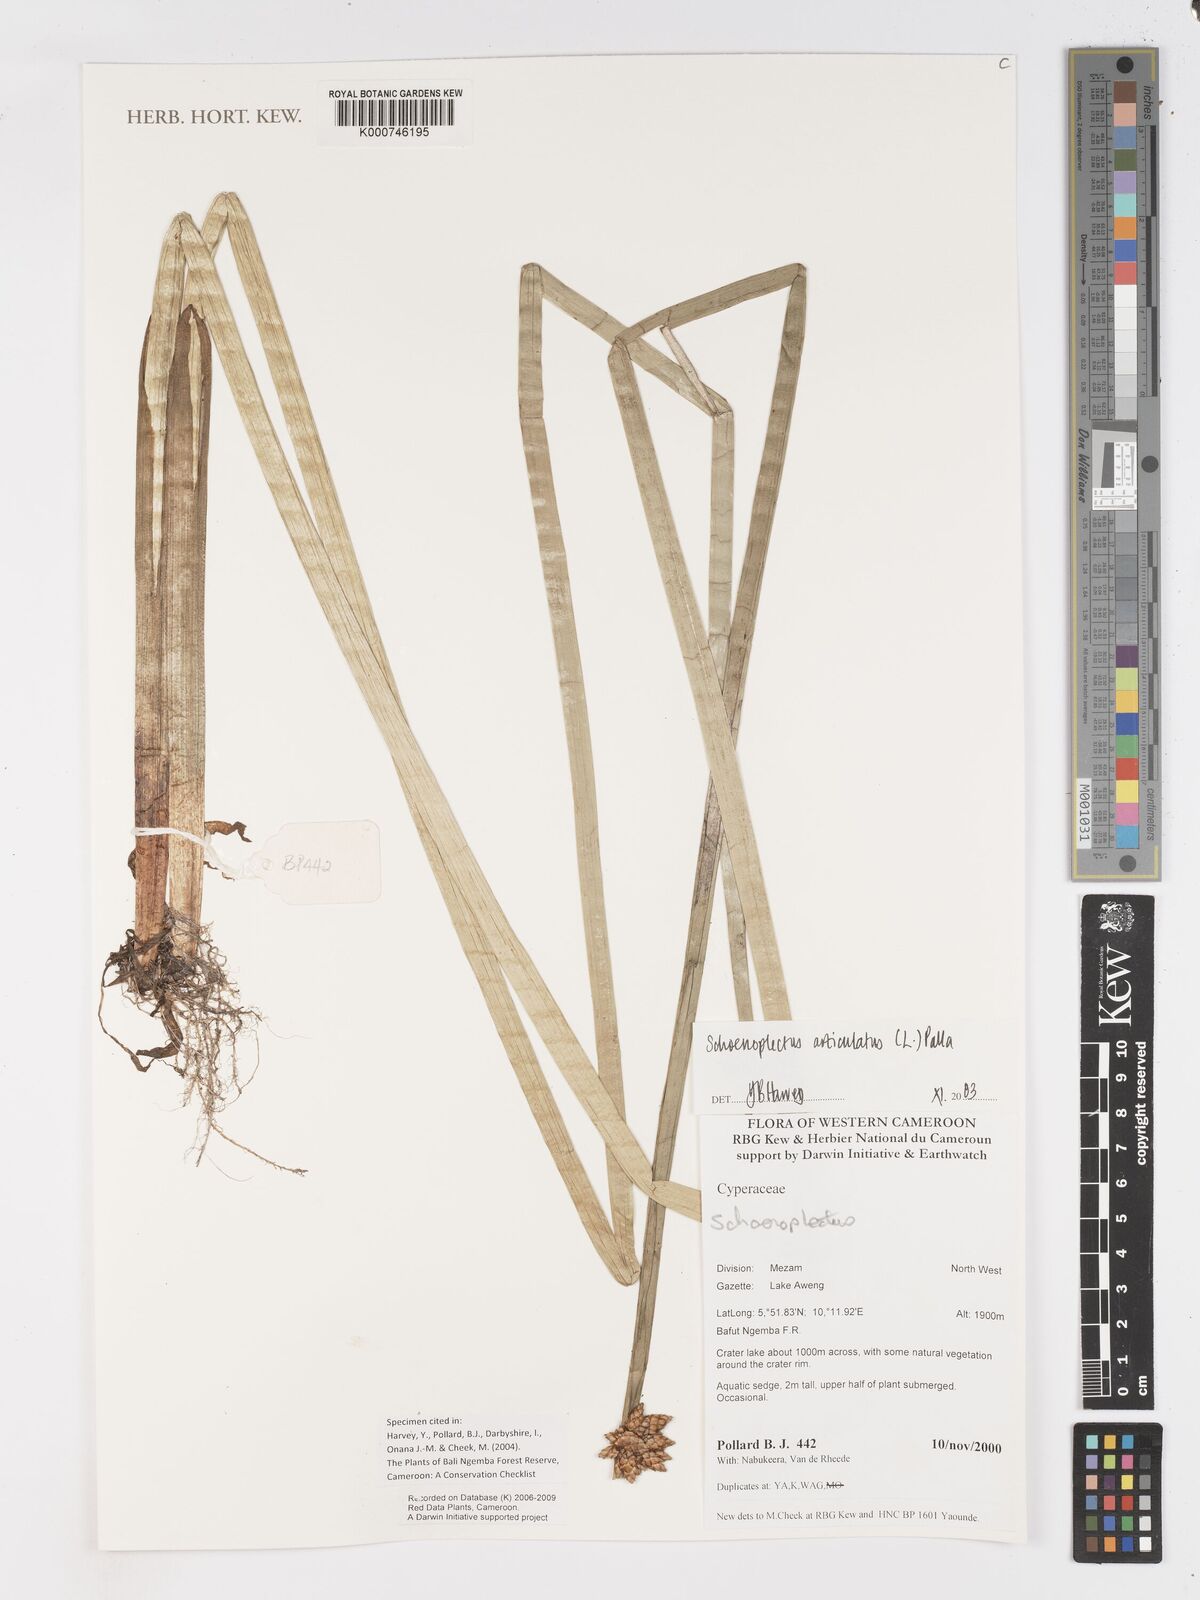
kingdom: Plantae
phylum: Tracheophyta
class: Liliopsida
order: Poales
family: Cyperaceae
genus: Schoenoplectiella
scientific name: Schoenoplectiella articulata
